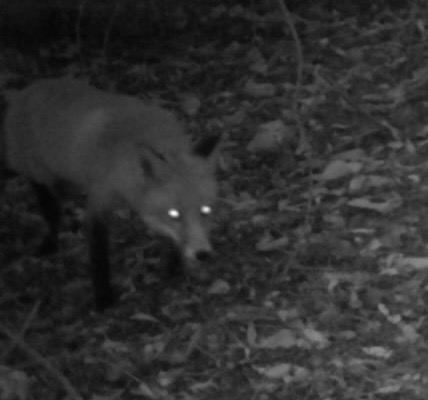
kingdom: Animalia
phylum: Chordata
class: Mammalia
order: Carnivora
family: Canidae
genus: Vulpes
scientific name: Vulpes vulpes
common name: Ræv
